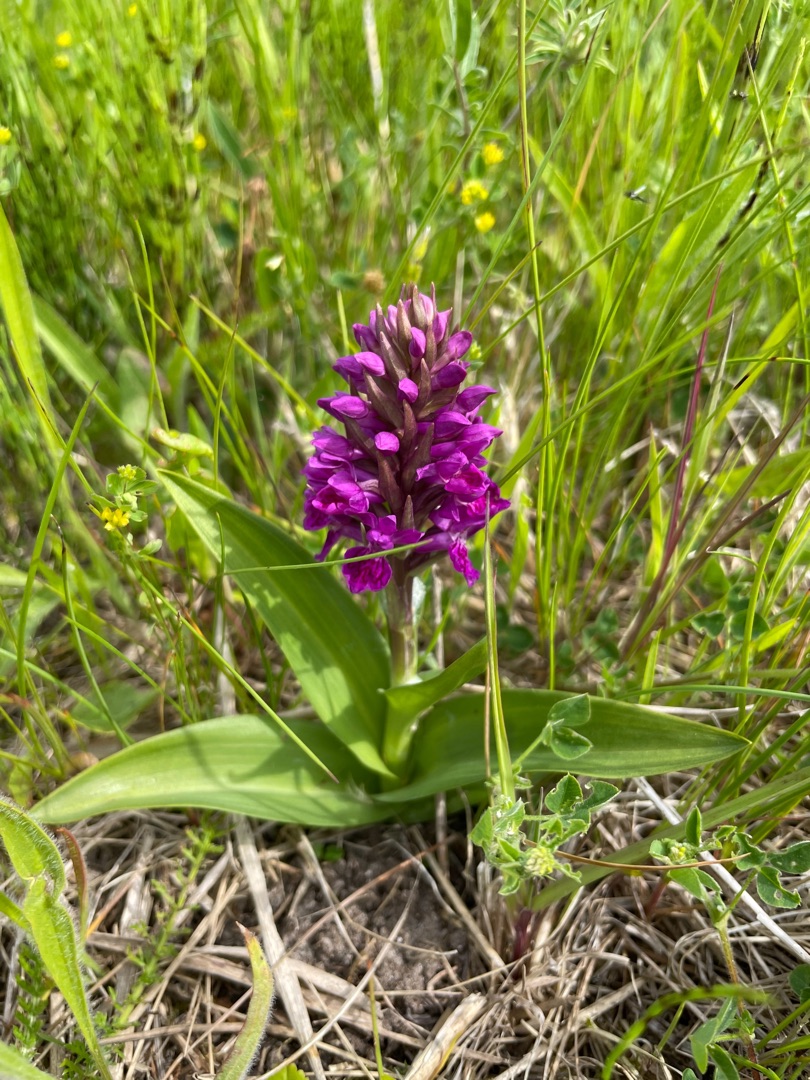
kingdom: Plantae
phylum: Tracheophyta
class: Liliopsida
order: Asparagales
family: Orchidaceae
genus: Dactylorhiza
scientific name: Dactylorhiza majalis
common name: Purpur-gøgeurt
